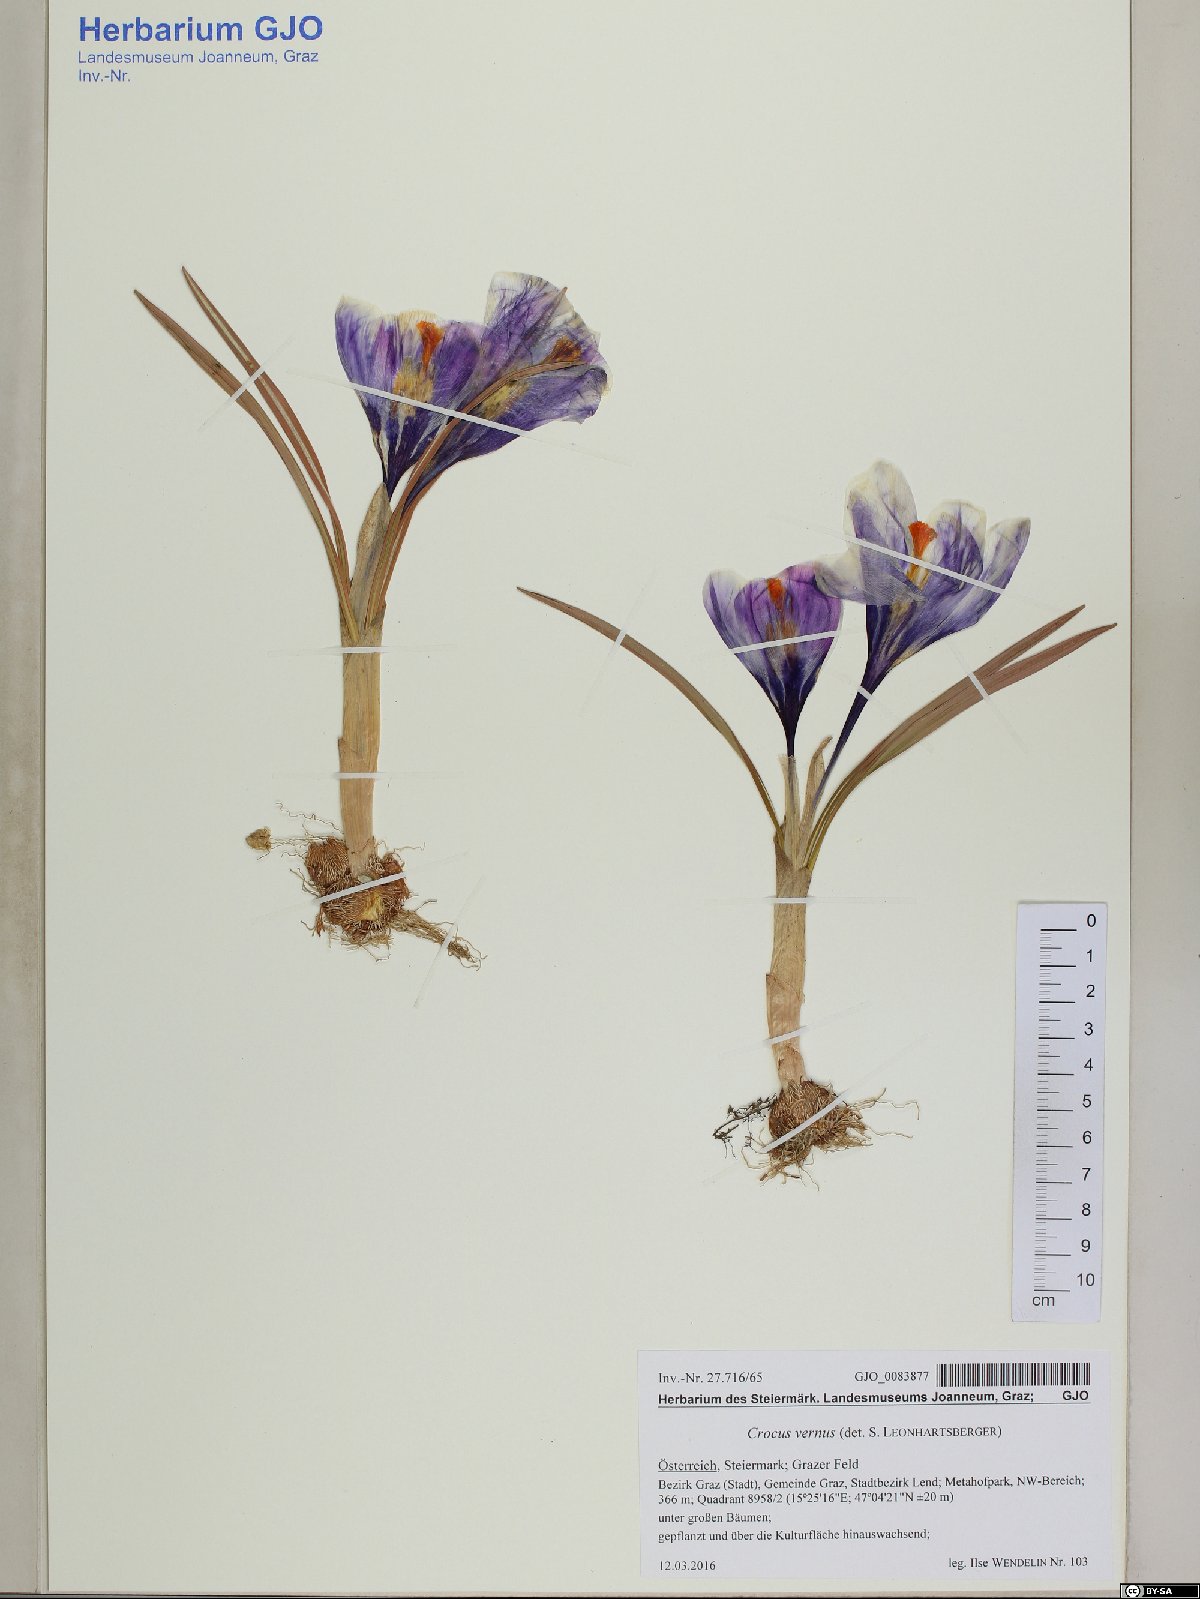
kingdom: Plantae
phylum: Tracheophyta
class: Liliopsida
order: Asparagales
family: Iridaceae
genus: Crocus
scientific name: Crocus vernus
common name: Spring crocus
